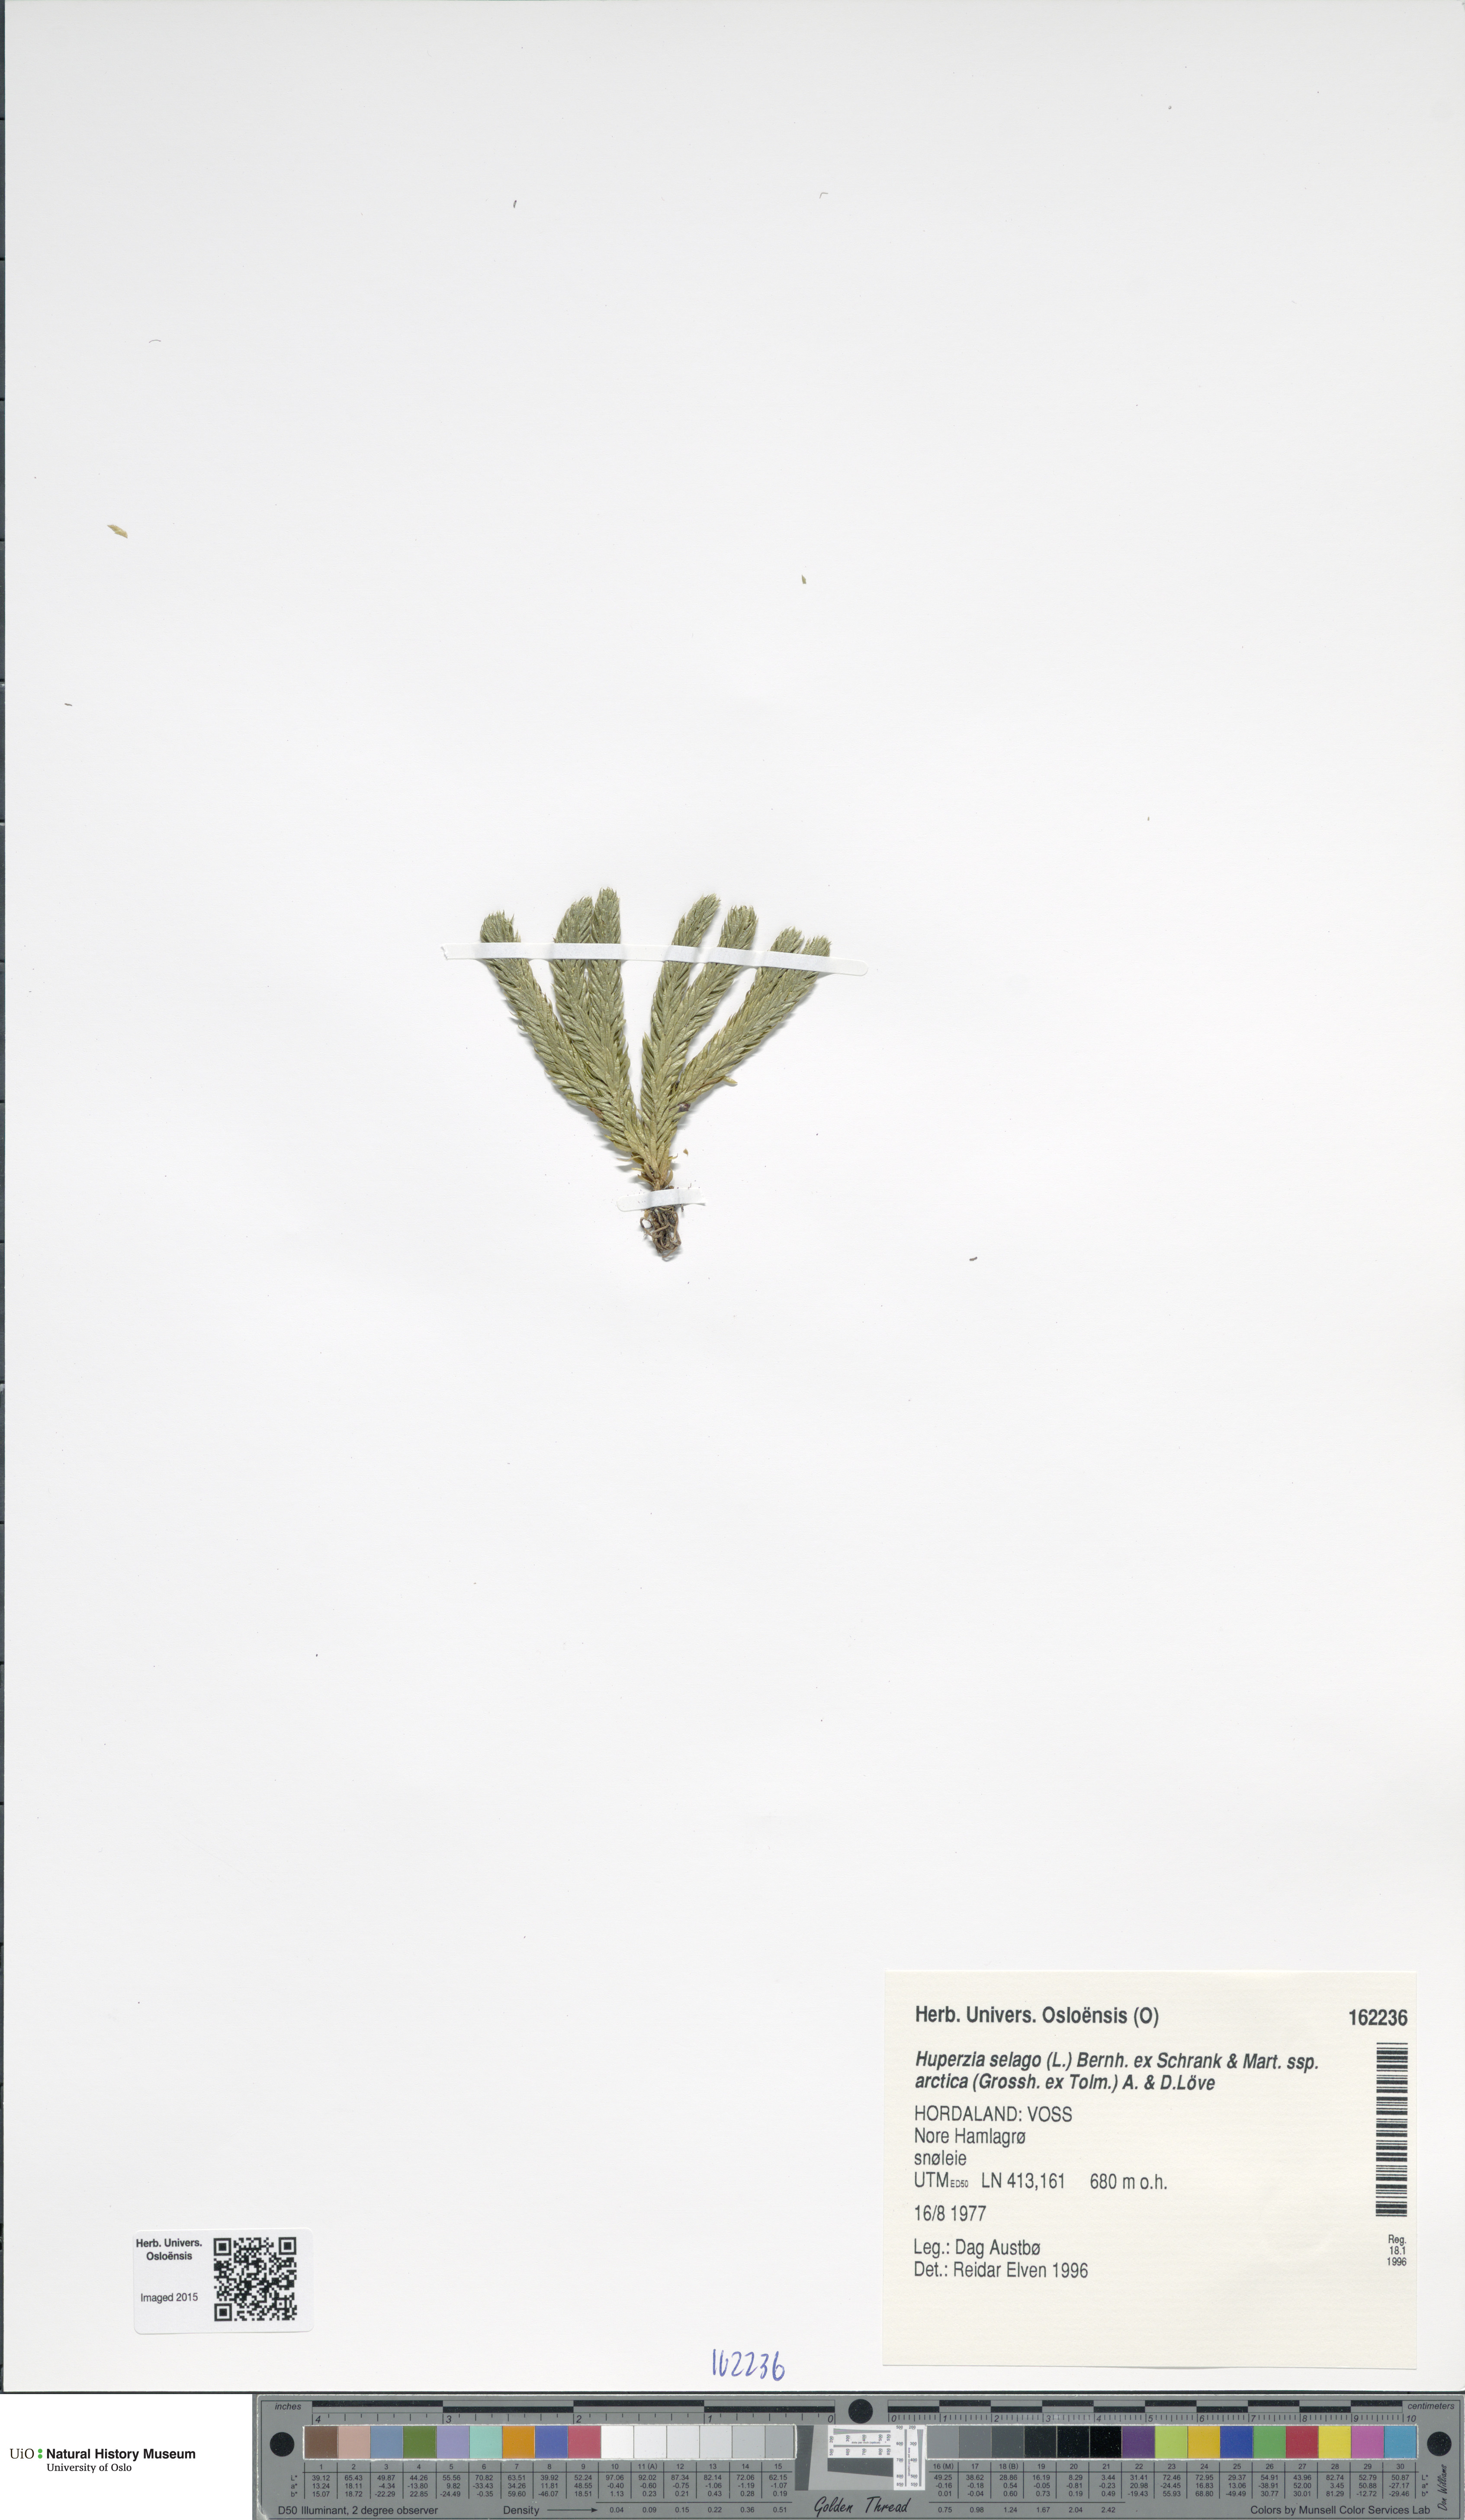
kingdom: Plantae
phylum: Tracheophyta
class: Lycopodiopsida
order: Lycopodiales
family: Lycopodiaceae
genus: Huperzia
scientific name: Huperzia selago
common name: Northern firmoss
